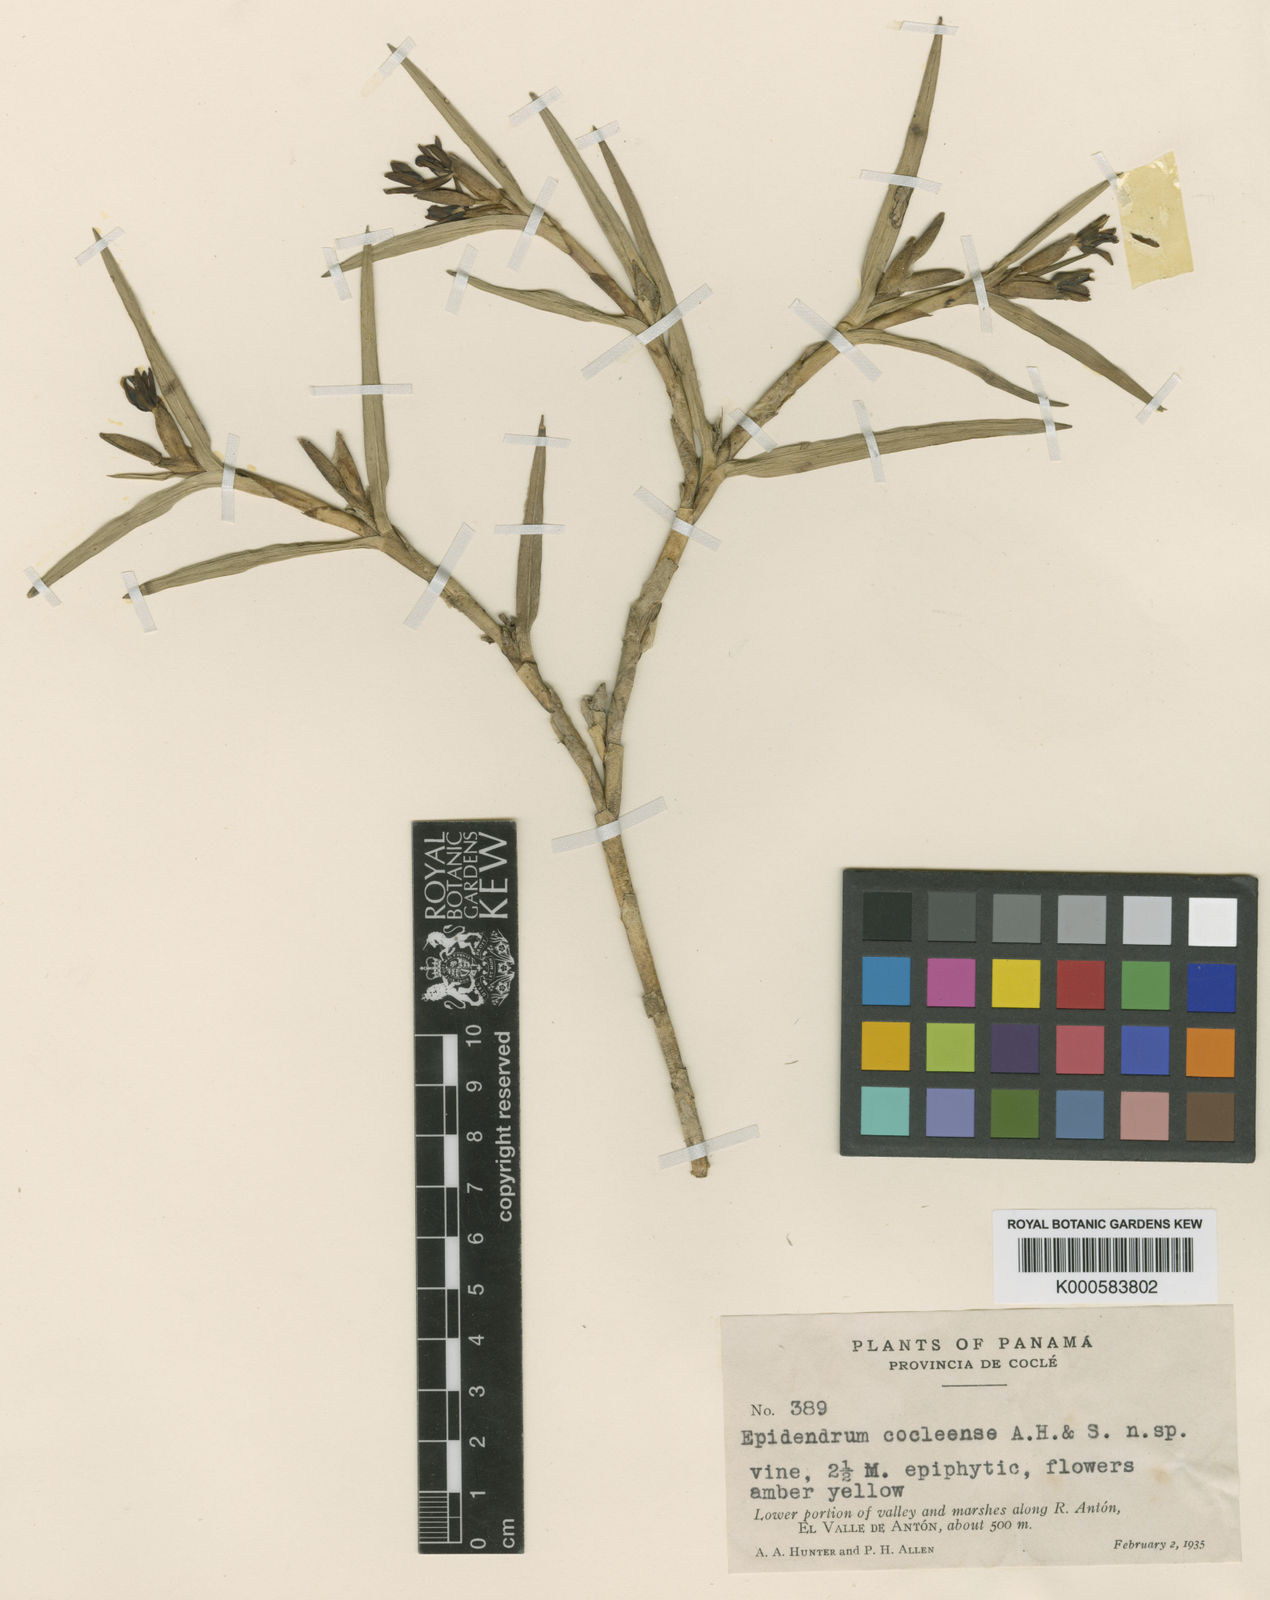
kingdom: Plantae
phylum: Tracheophyta
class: Liliopsida
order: Asparagales
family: Orchidaceae
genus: Epidendrum
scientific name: Epidendrum guanacastense
